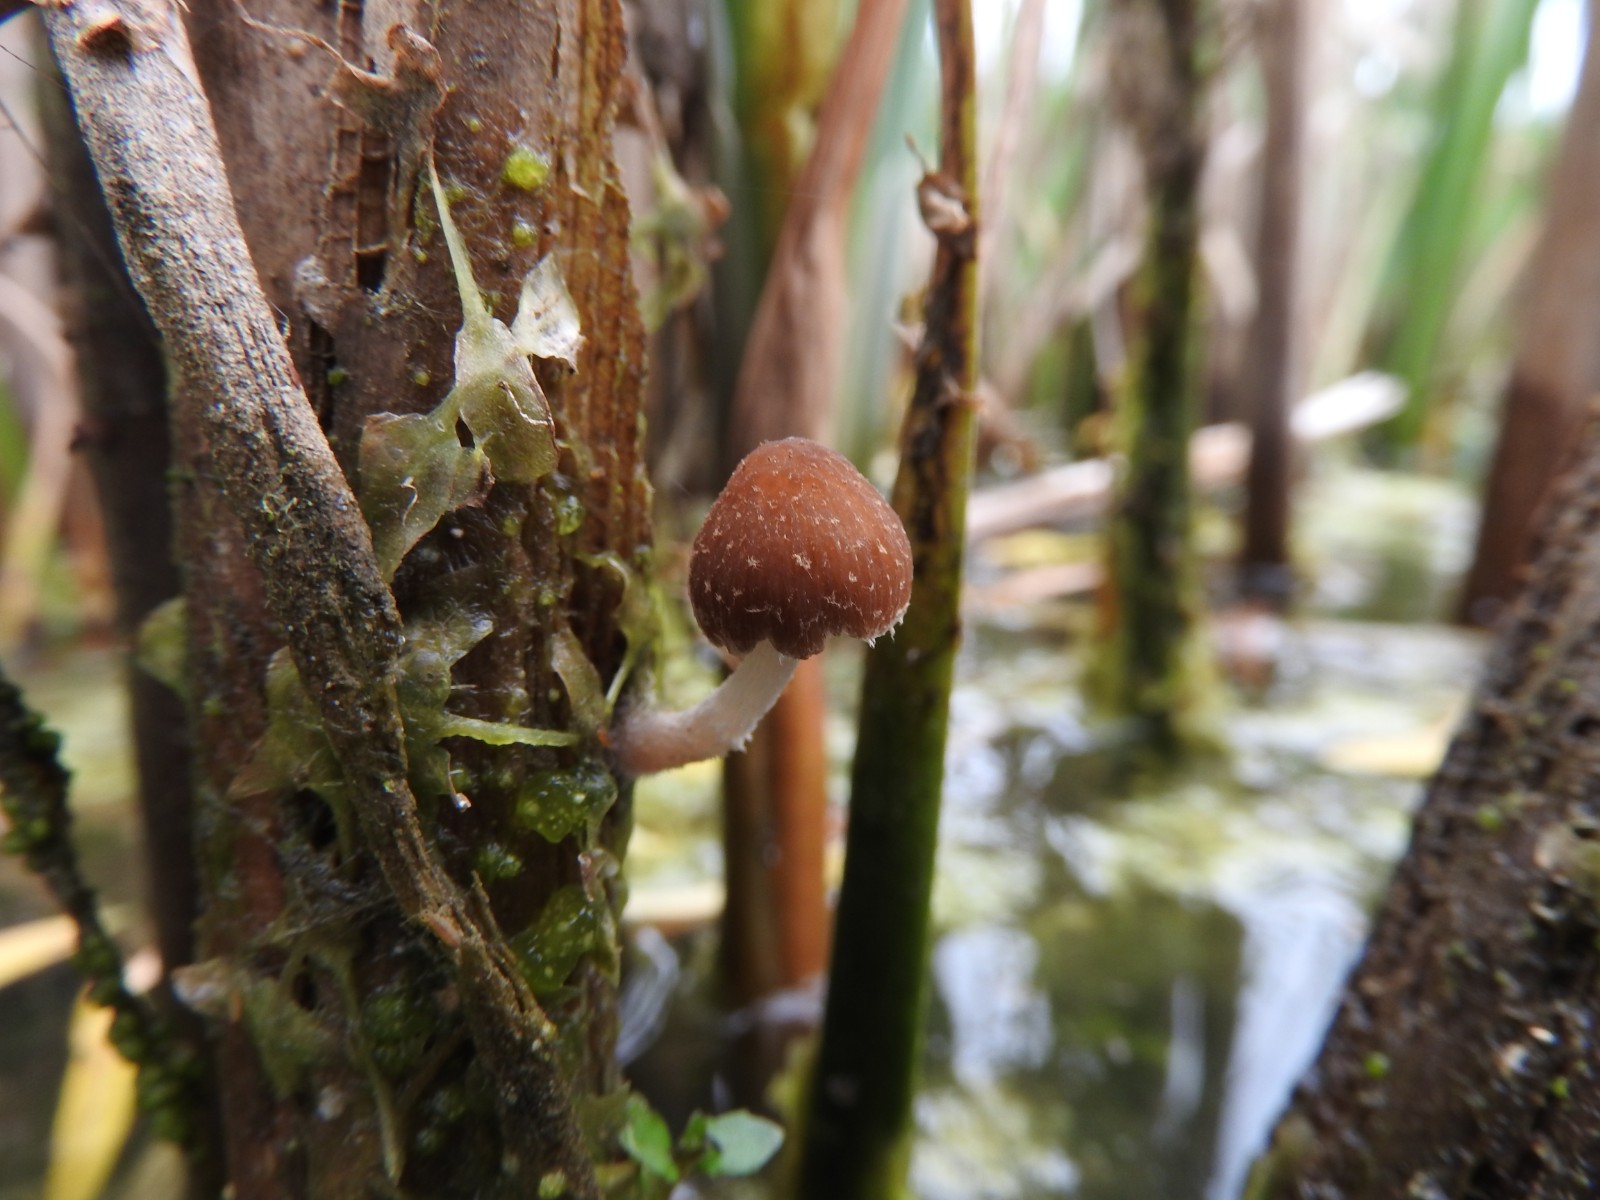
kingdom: Fungi
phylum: Basidiomycota
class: Agaricomycetes
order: Agaricales
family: Psathyrellaceae
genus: Candolleomyces
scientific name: Candolleomyces typhae
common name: dunhammer-mørkhat
